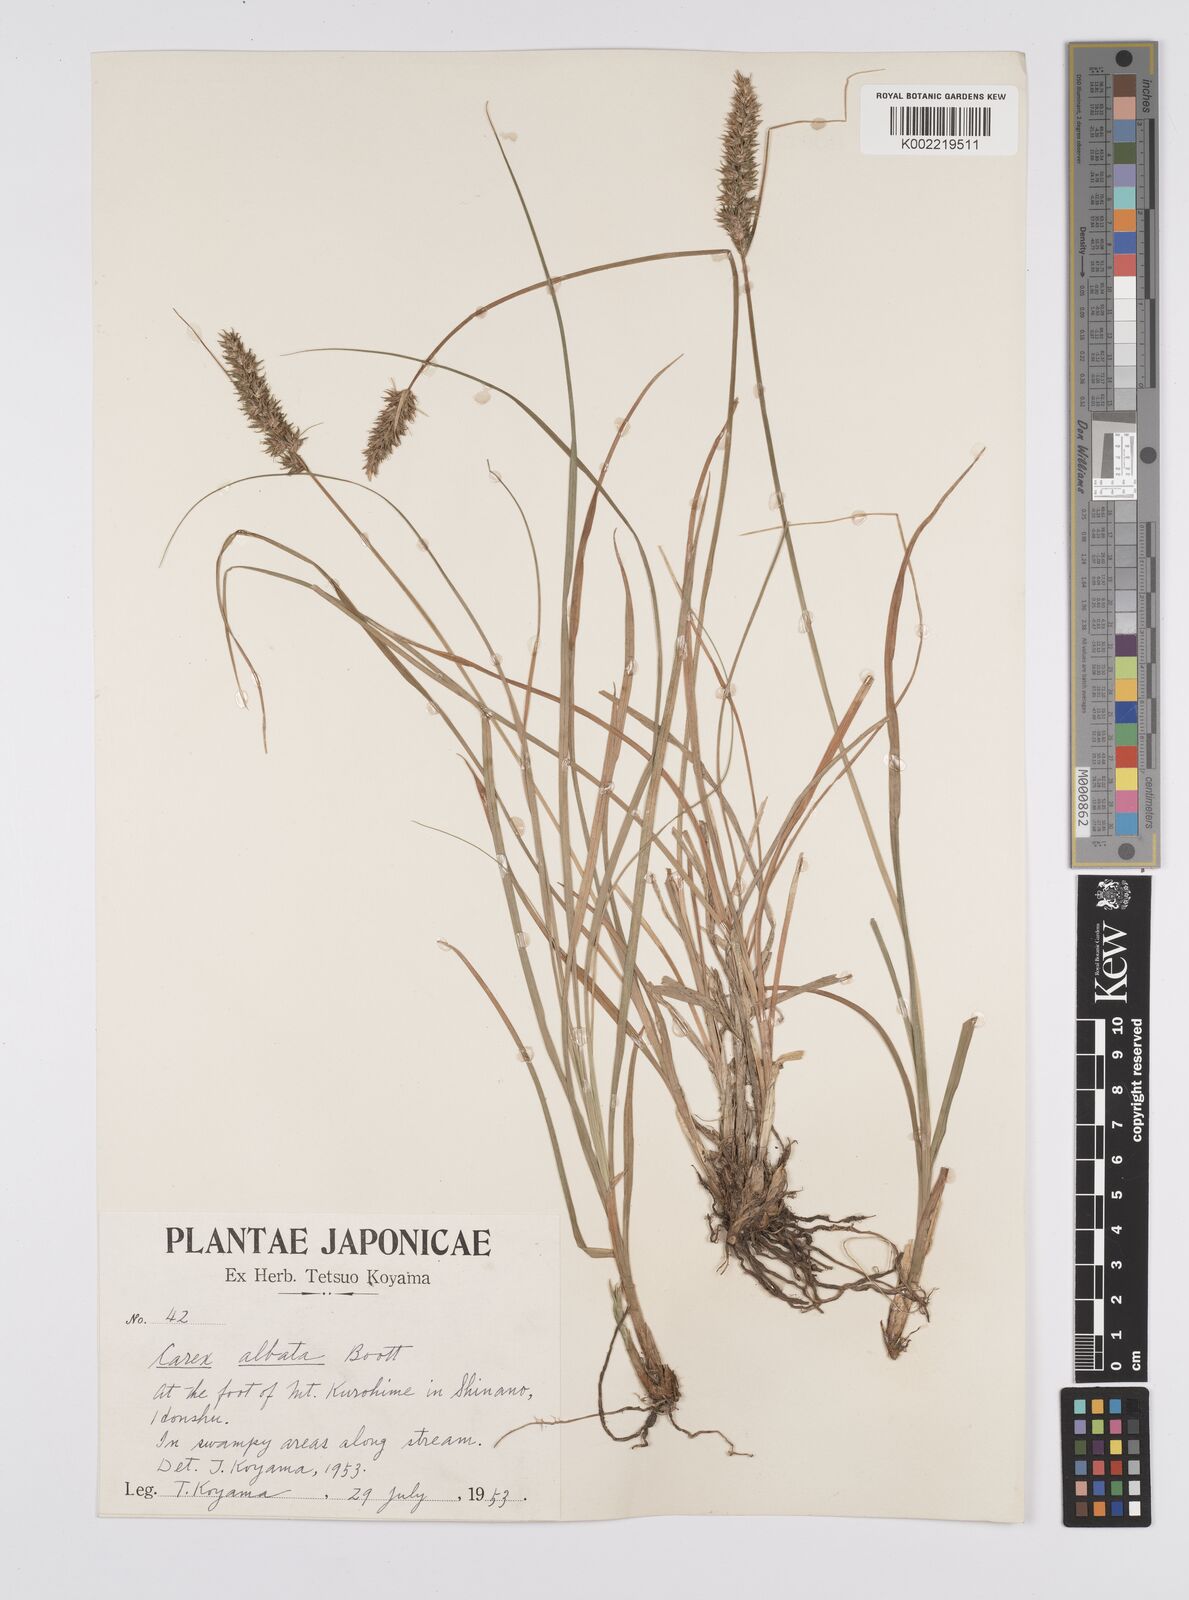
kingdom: Plantae
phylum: Tracheophyta
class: Liliopsida
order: Poales
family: Cyperaceae
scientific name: Cyperaceae
